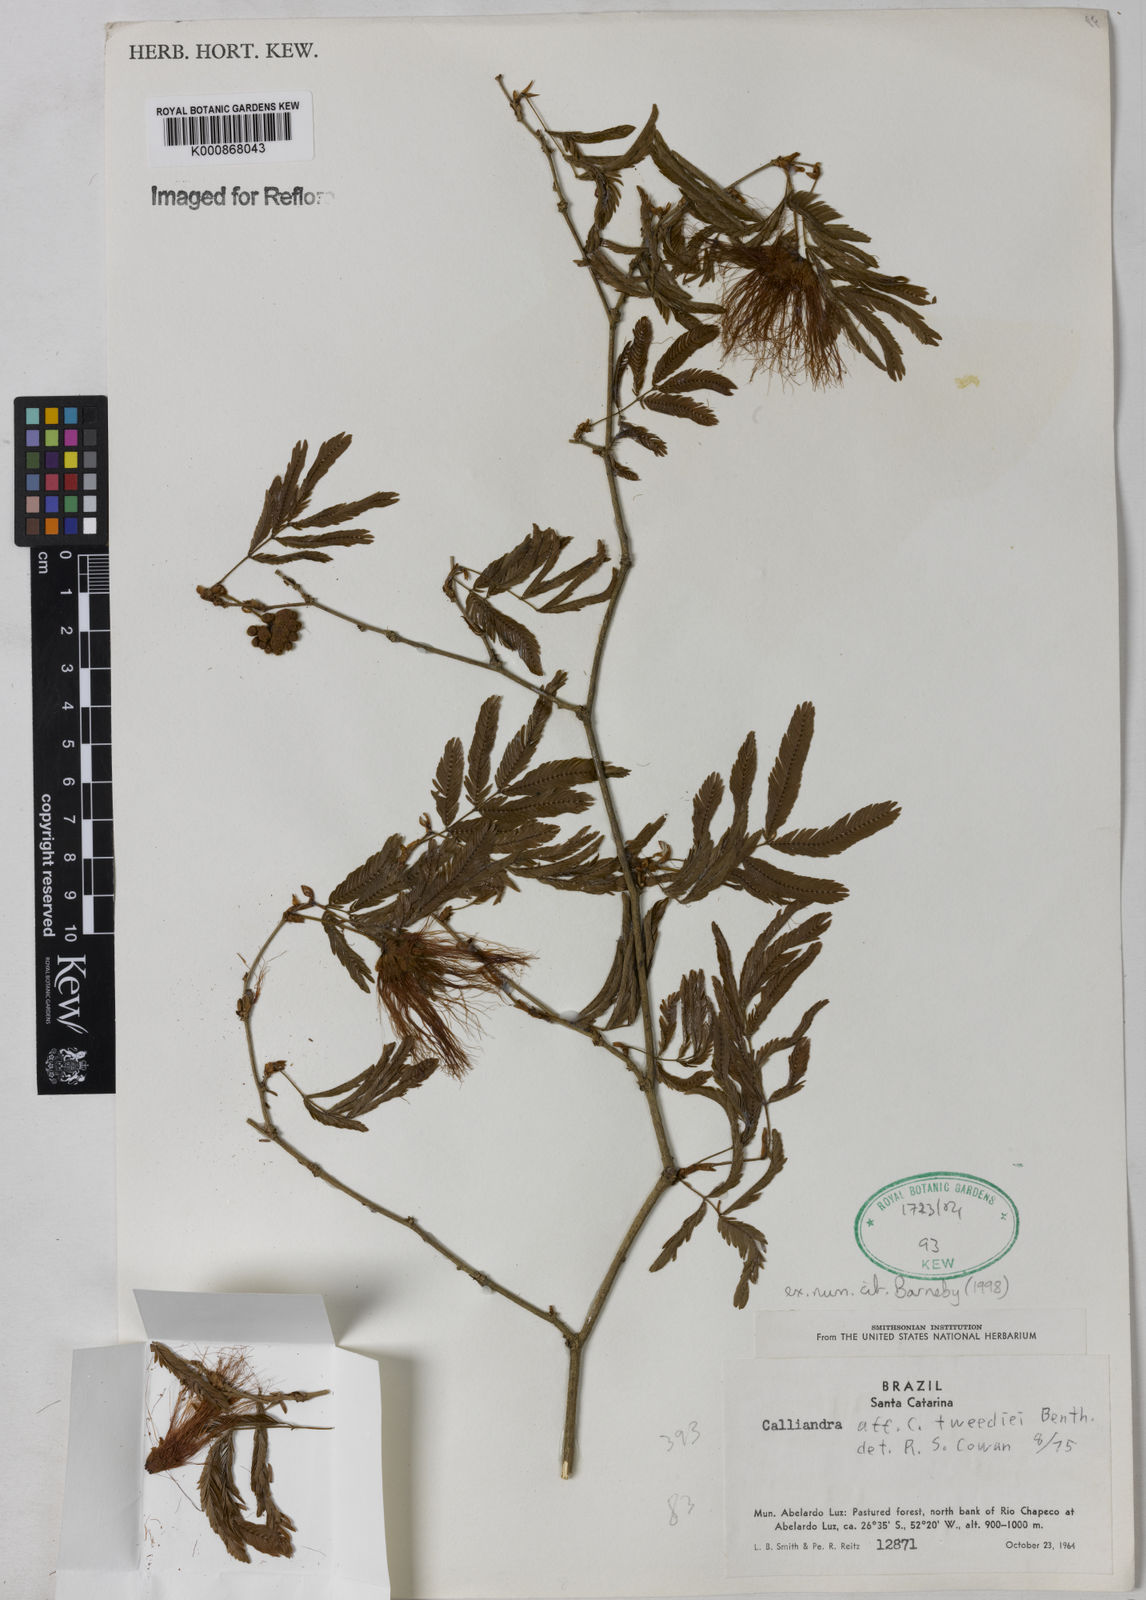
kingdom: Plantae
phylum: Tracheophyta
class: Magnoliopsida
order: Fabales
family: Fabaceae
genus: Calliandra
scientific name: Calliandra tweediei
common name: Mexican flamebush
